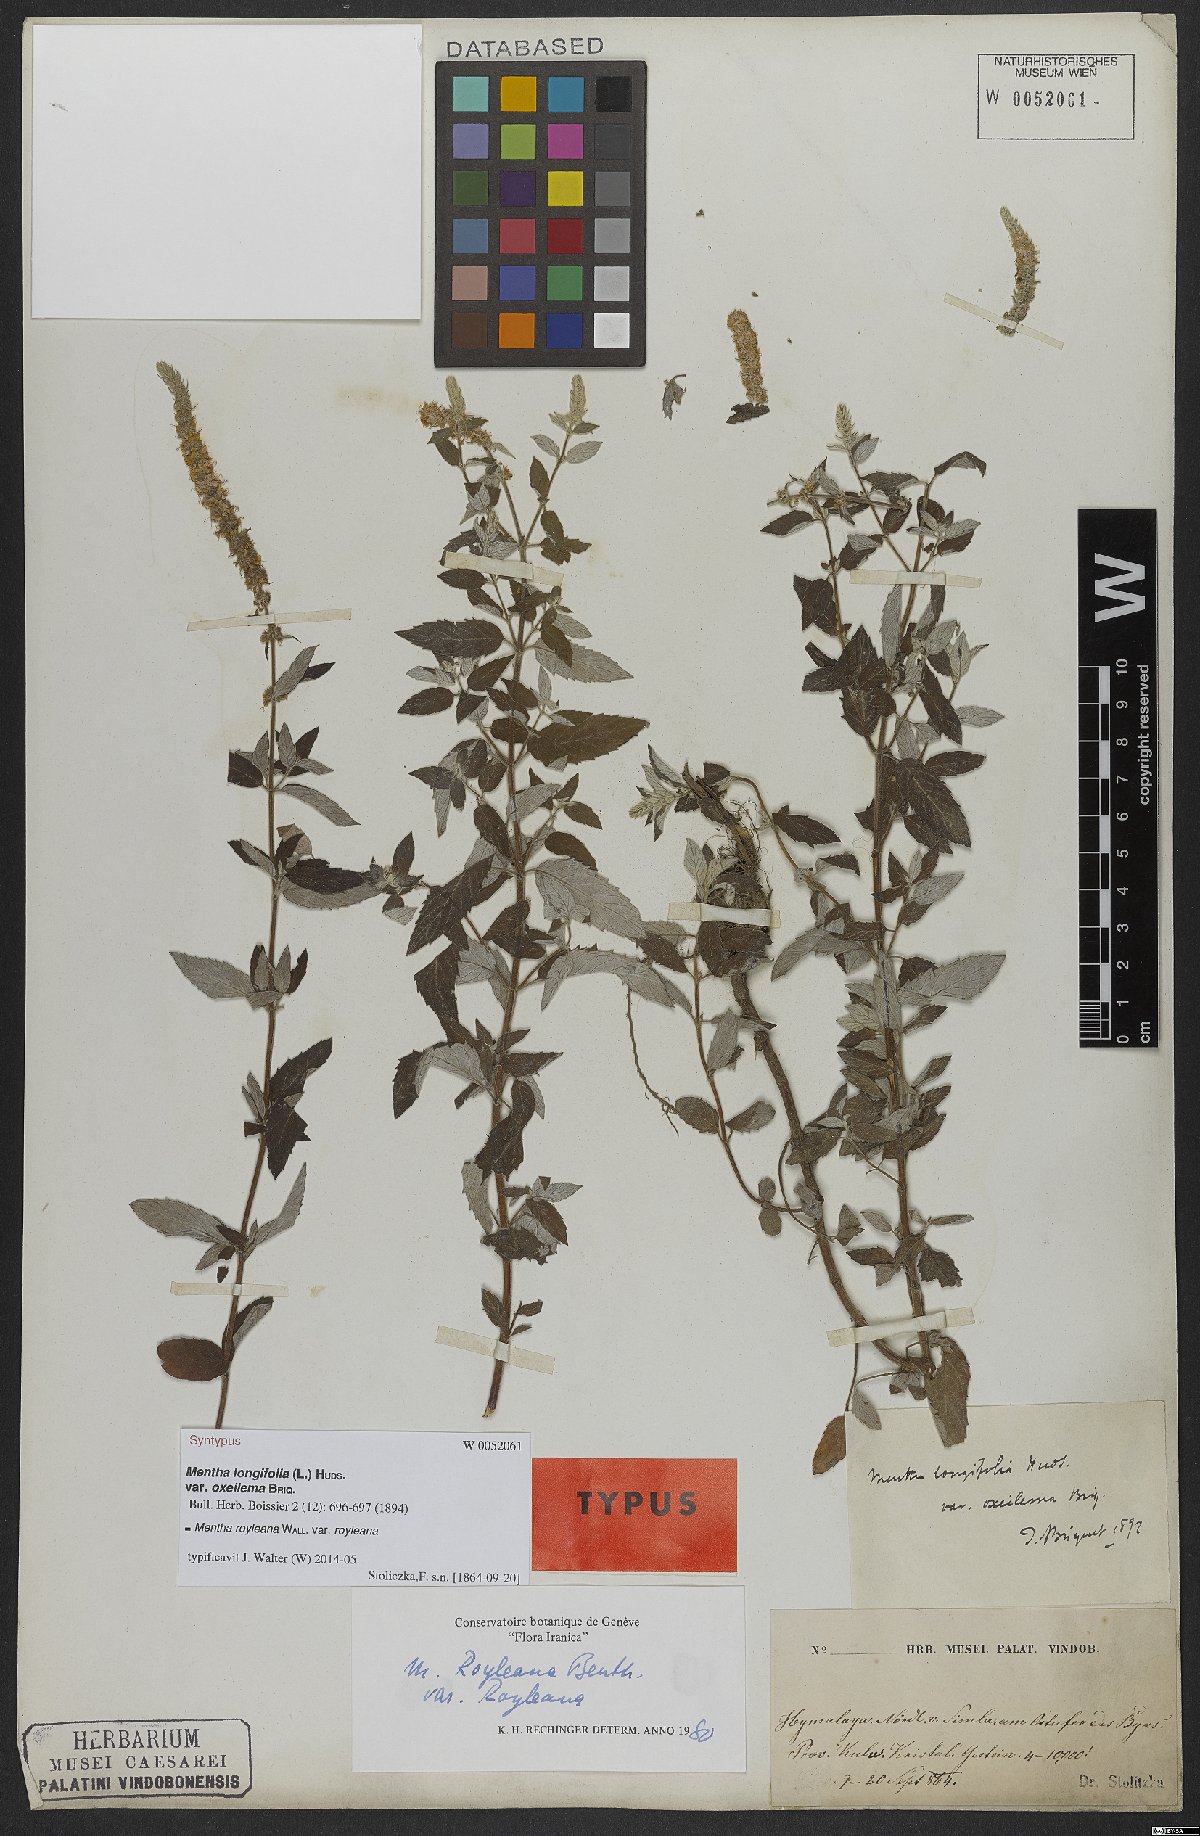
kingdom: Plantae
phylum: Tracheophyta
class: Magnoliopsida
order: Lamiales
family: Lamiaceae
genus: Mentha
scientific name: Mentha royleana
